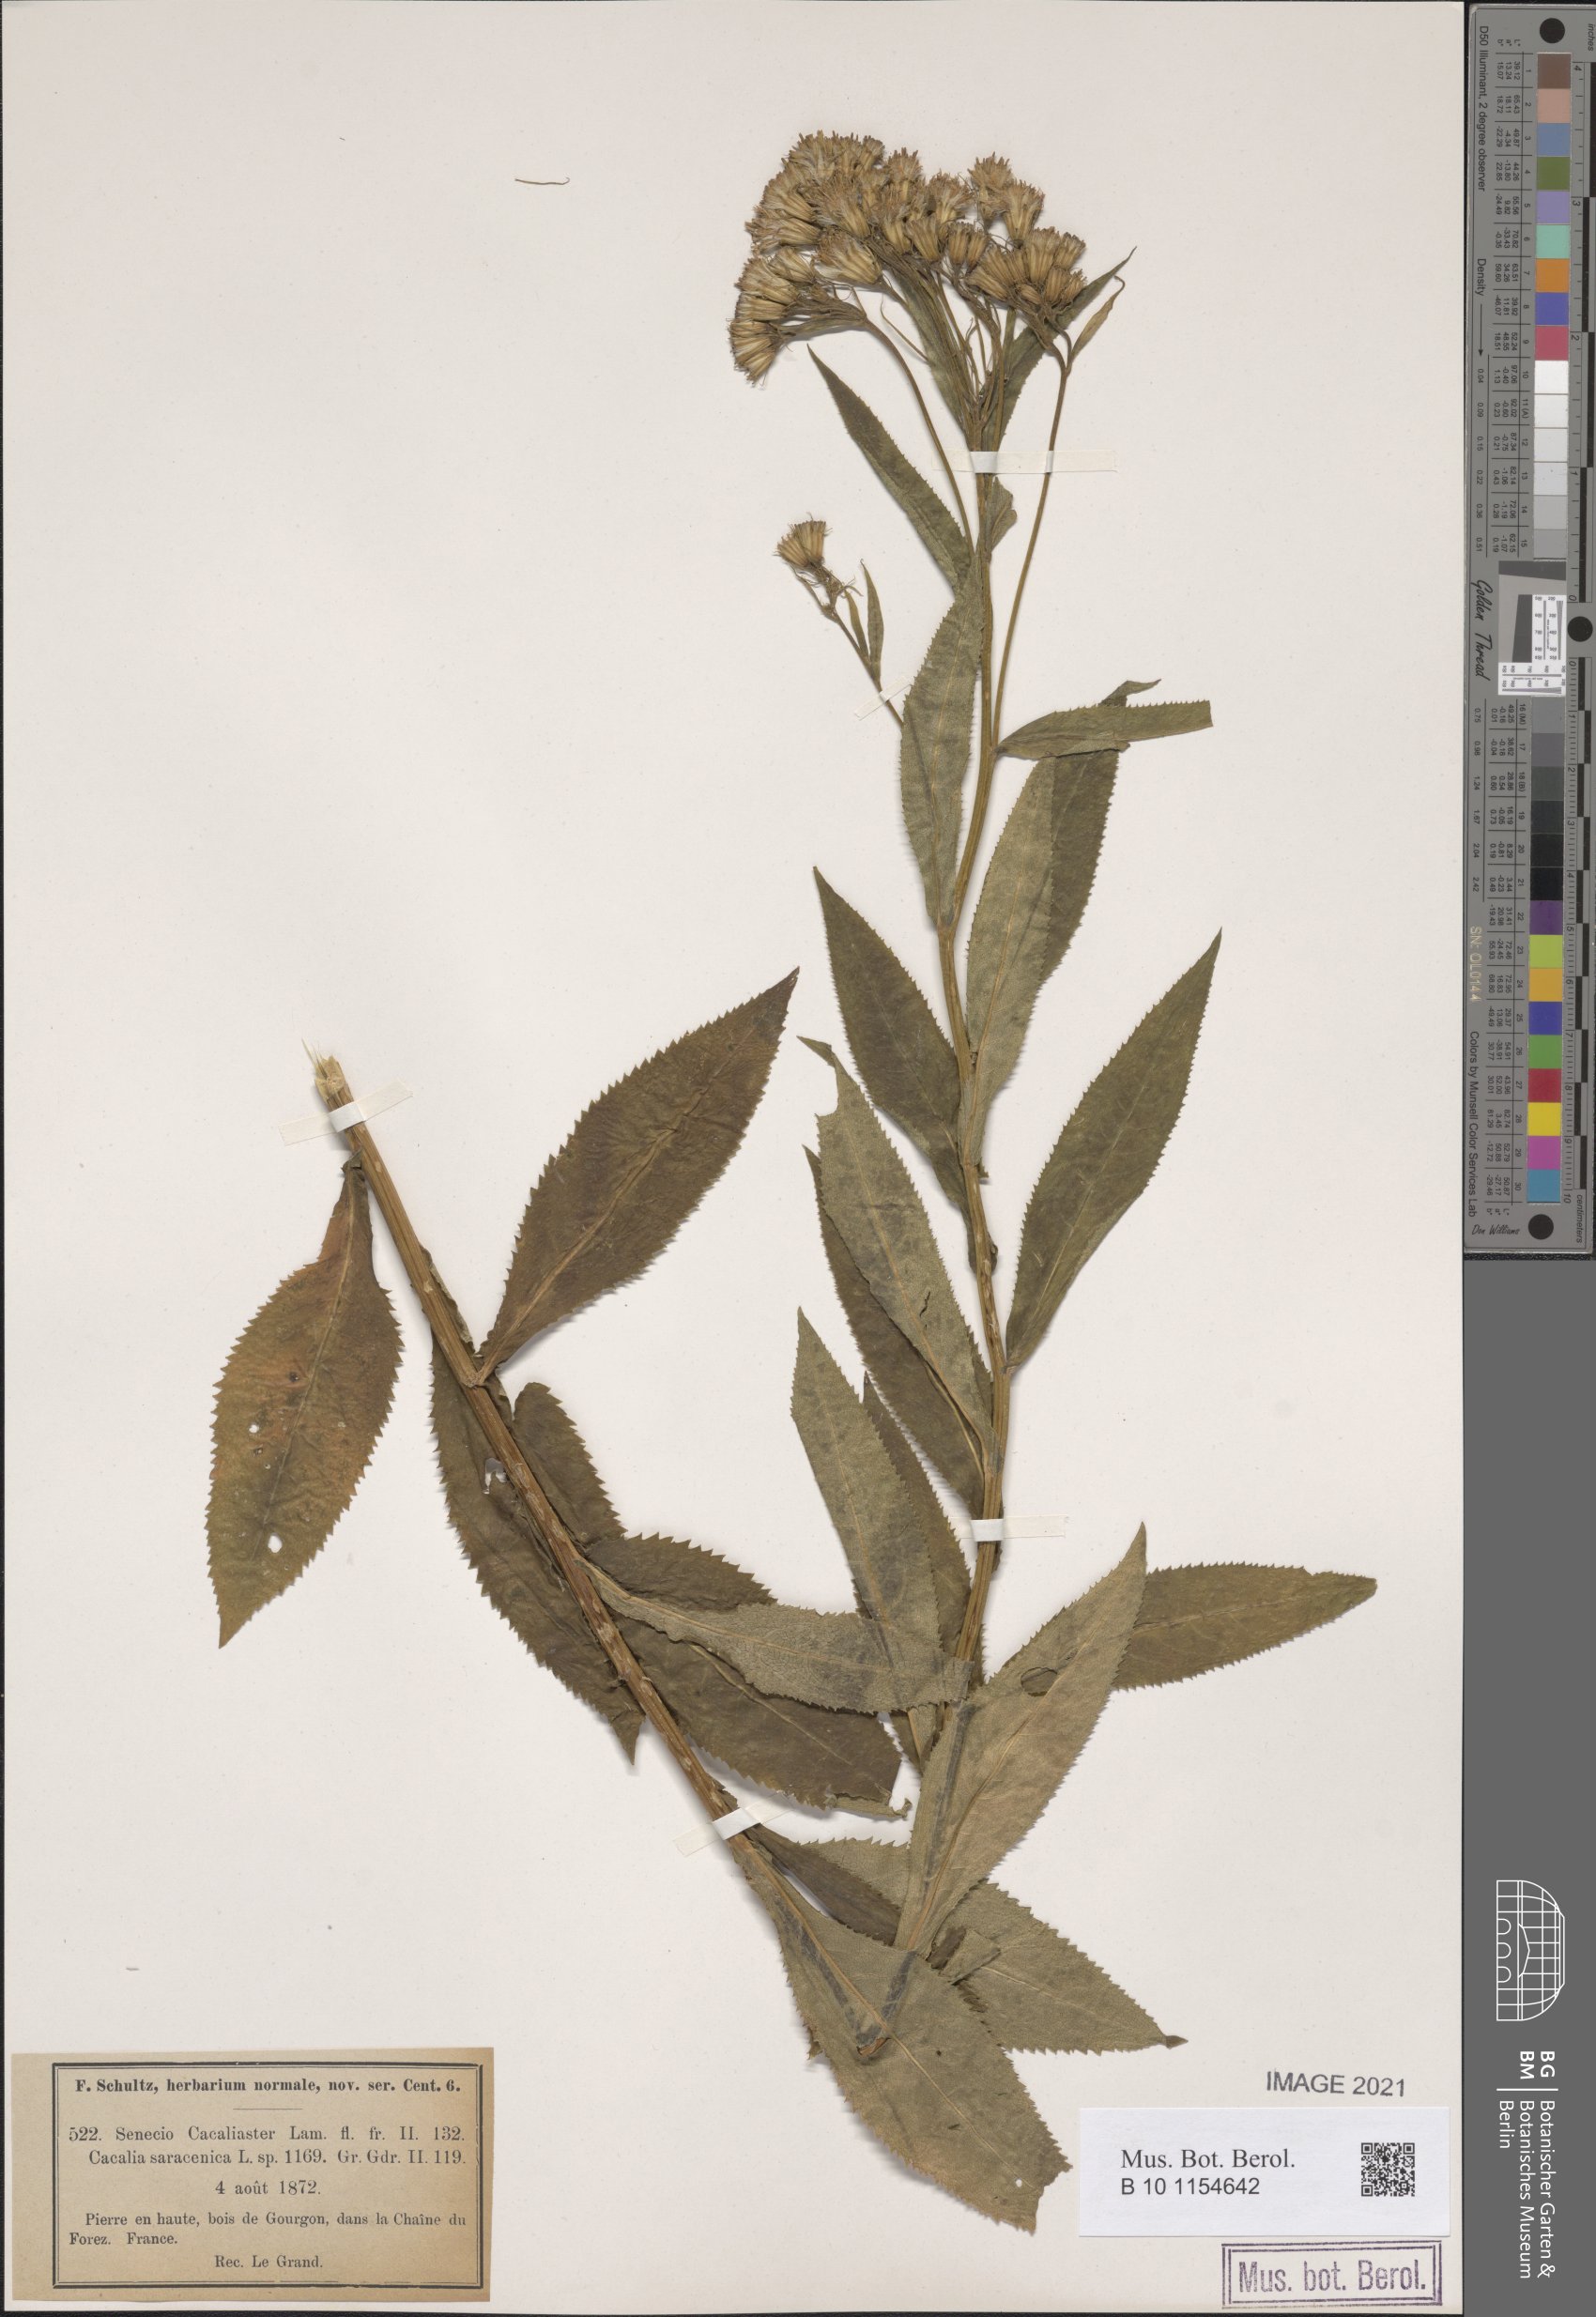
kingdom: Plantae
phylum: Tracheophyta
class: Magnoliopsida
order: Asterales
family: Asteraceae
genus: Senecio
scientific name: Senecio cacaliaster
